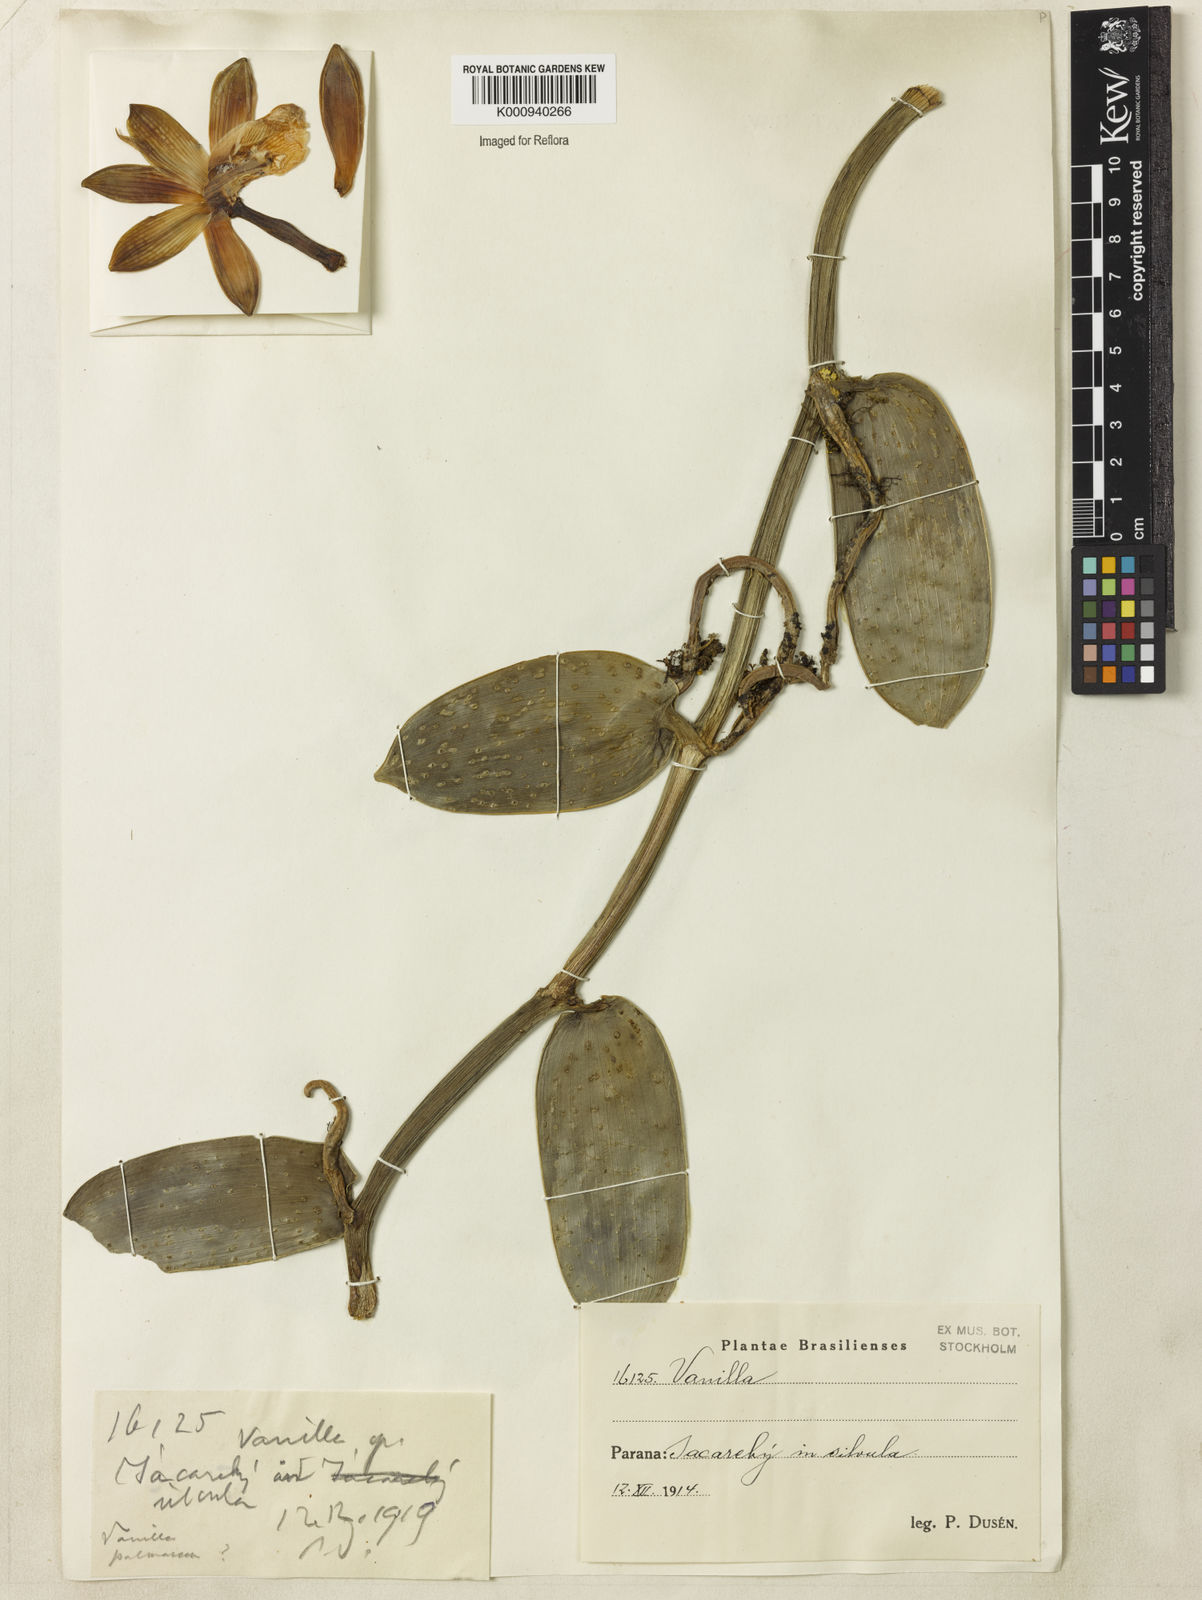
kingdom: Plantae
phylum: Tracheophyta
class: Liliopsida
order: Asparagales
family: Orchidaceae
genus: Vanilla
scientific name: Vanilla
